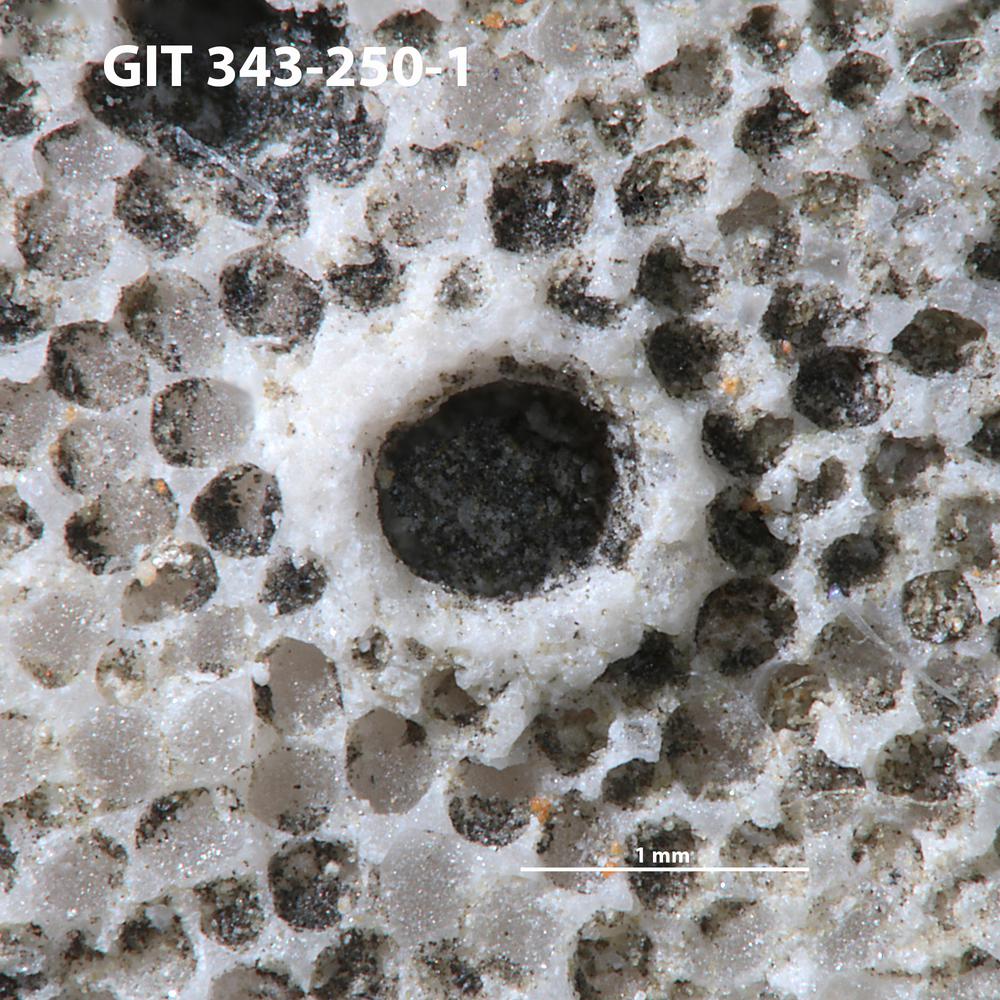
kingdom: Animalia
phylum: Annelida
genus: Anoigmaichnus
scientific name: Anoigmaichnus
